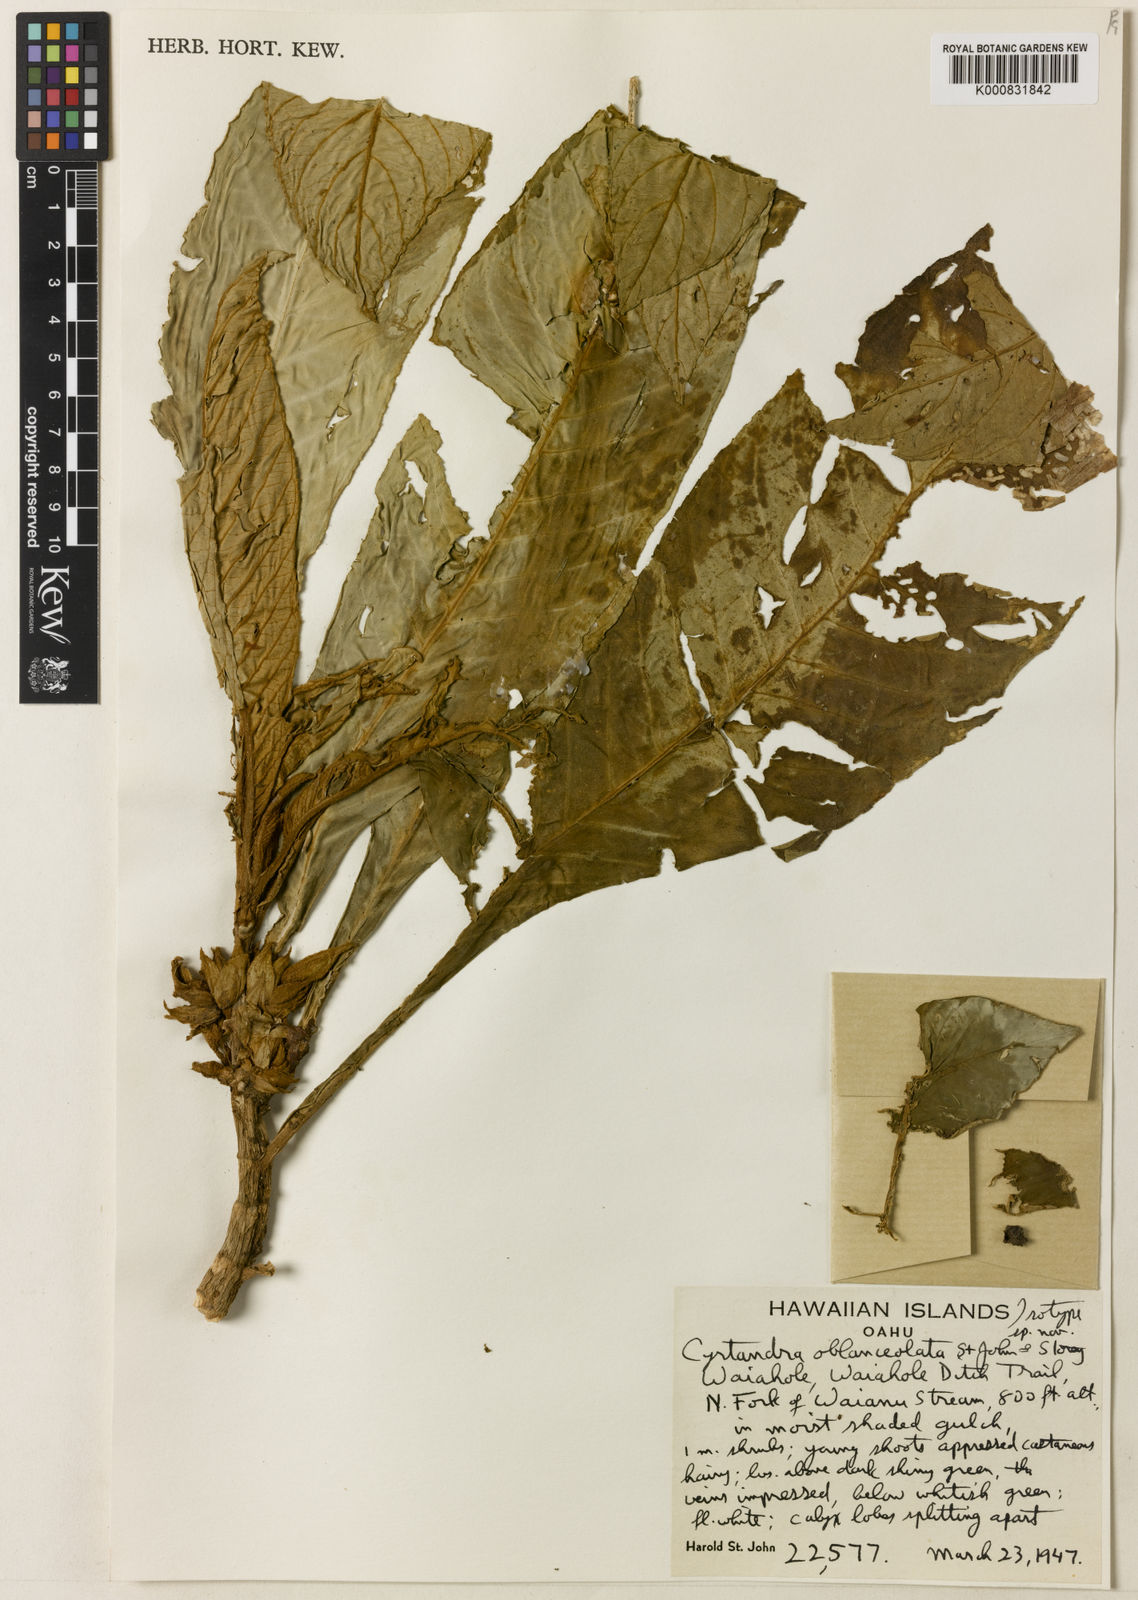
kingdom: Plantae
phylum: Tracheophyta
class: Magnoliopsida
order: Lamiales
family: Gesneriaceae
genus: Cyrtandra
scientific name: Cyrtandra hawaiensis
